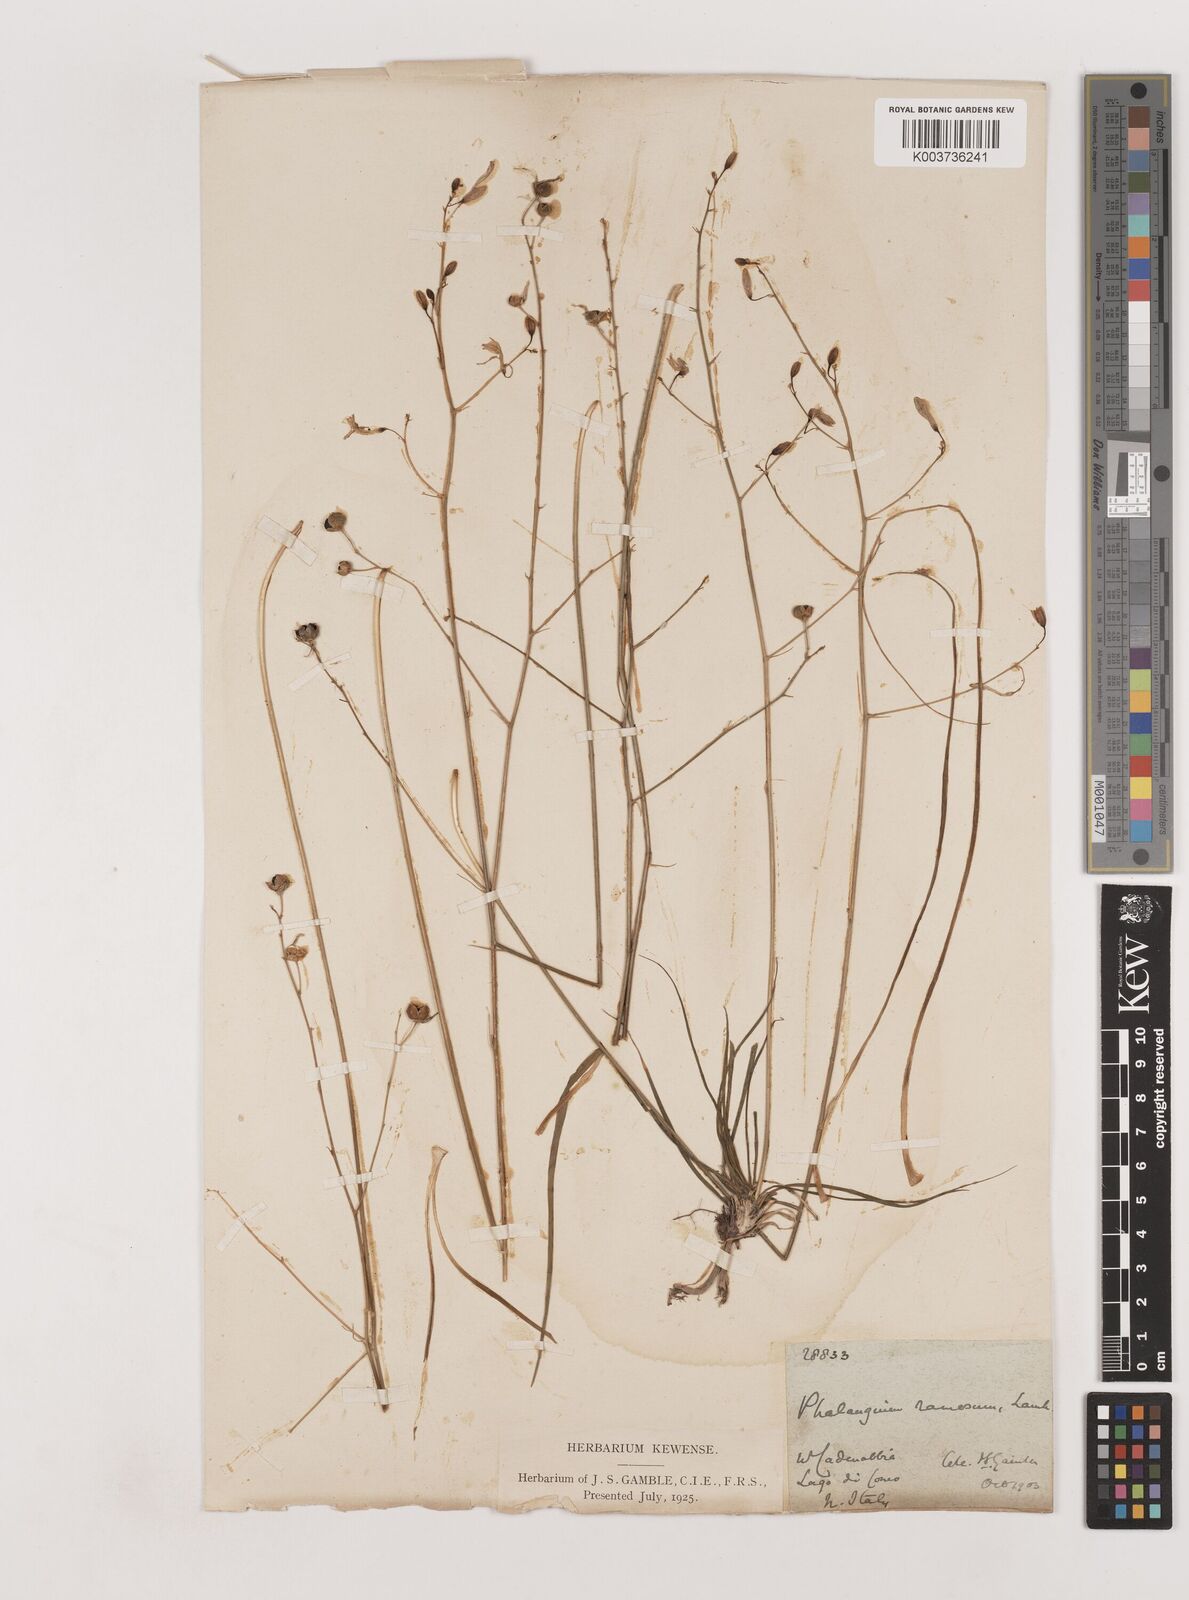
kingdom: Plantae
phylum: Tracheophyta
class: Liliopsida
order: Asparagales
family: Asparagaceae
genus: Anthericum
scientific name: Anthericum
